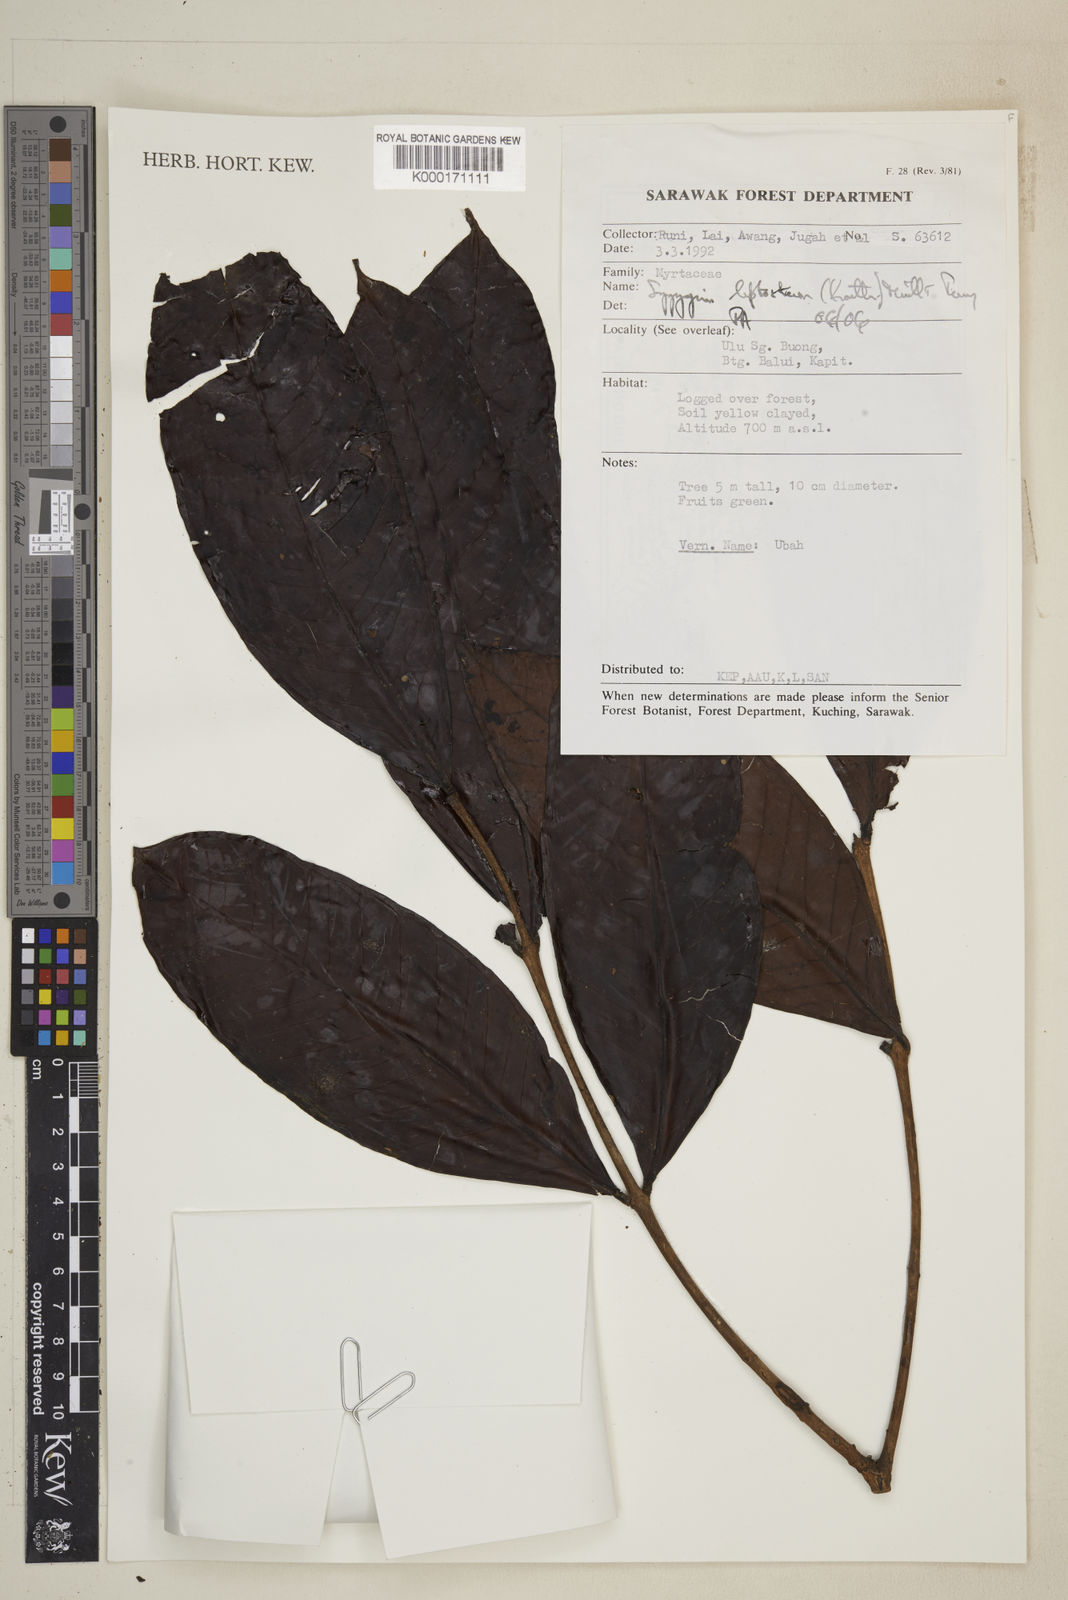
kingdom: Plantae
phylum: Tracheophyta
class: Magnoliopsida
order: Myrtales
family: Myrtaceae
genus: Syzygium
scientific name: Syzygium
